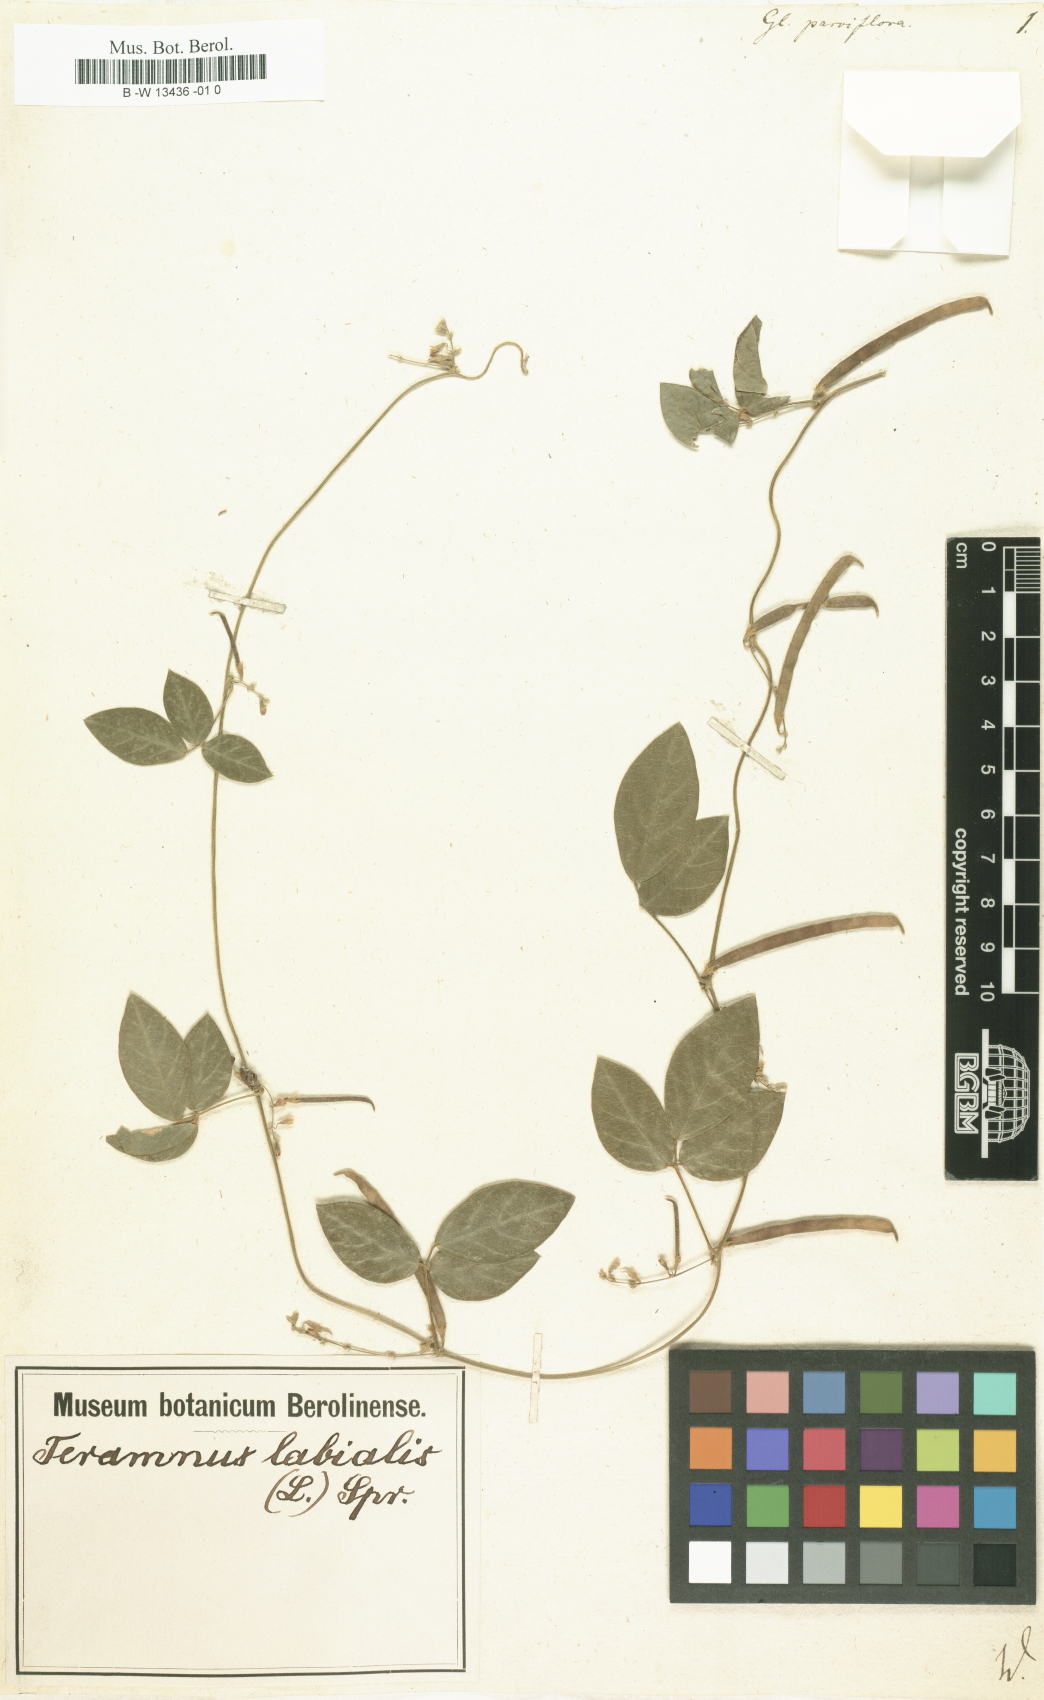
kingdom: Plantae
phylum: Tracheophyta
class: Magnoliopsida
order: Fabales
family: Fabaceae
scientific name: Fabaceae
